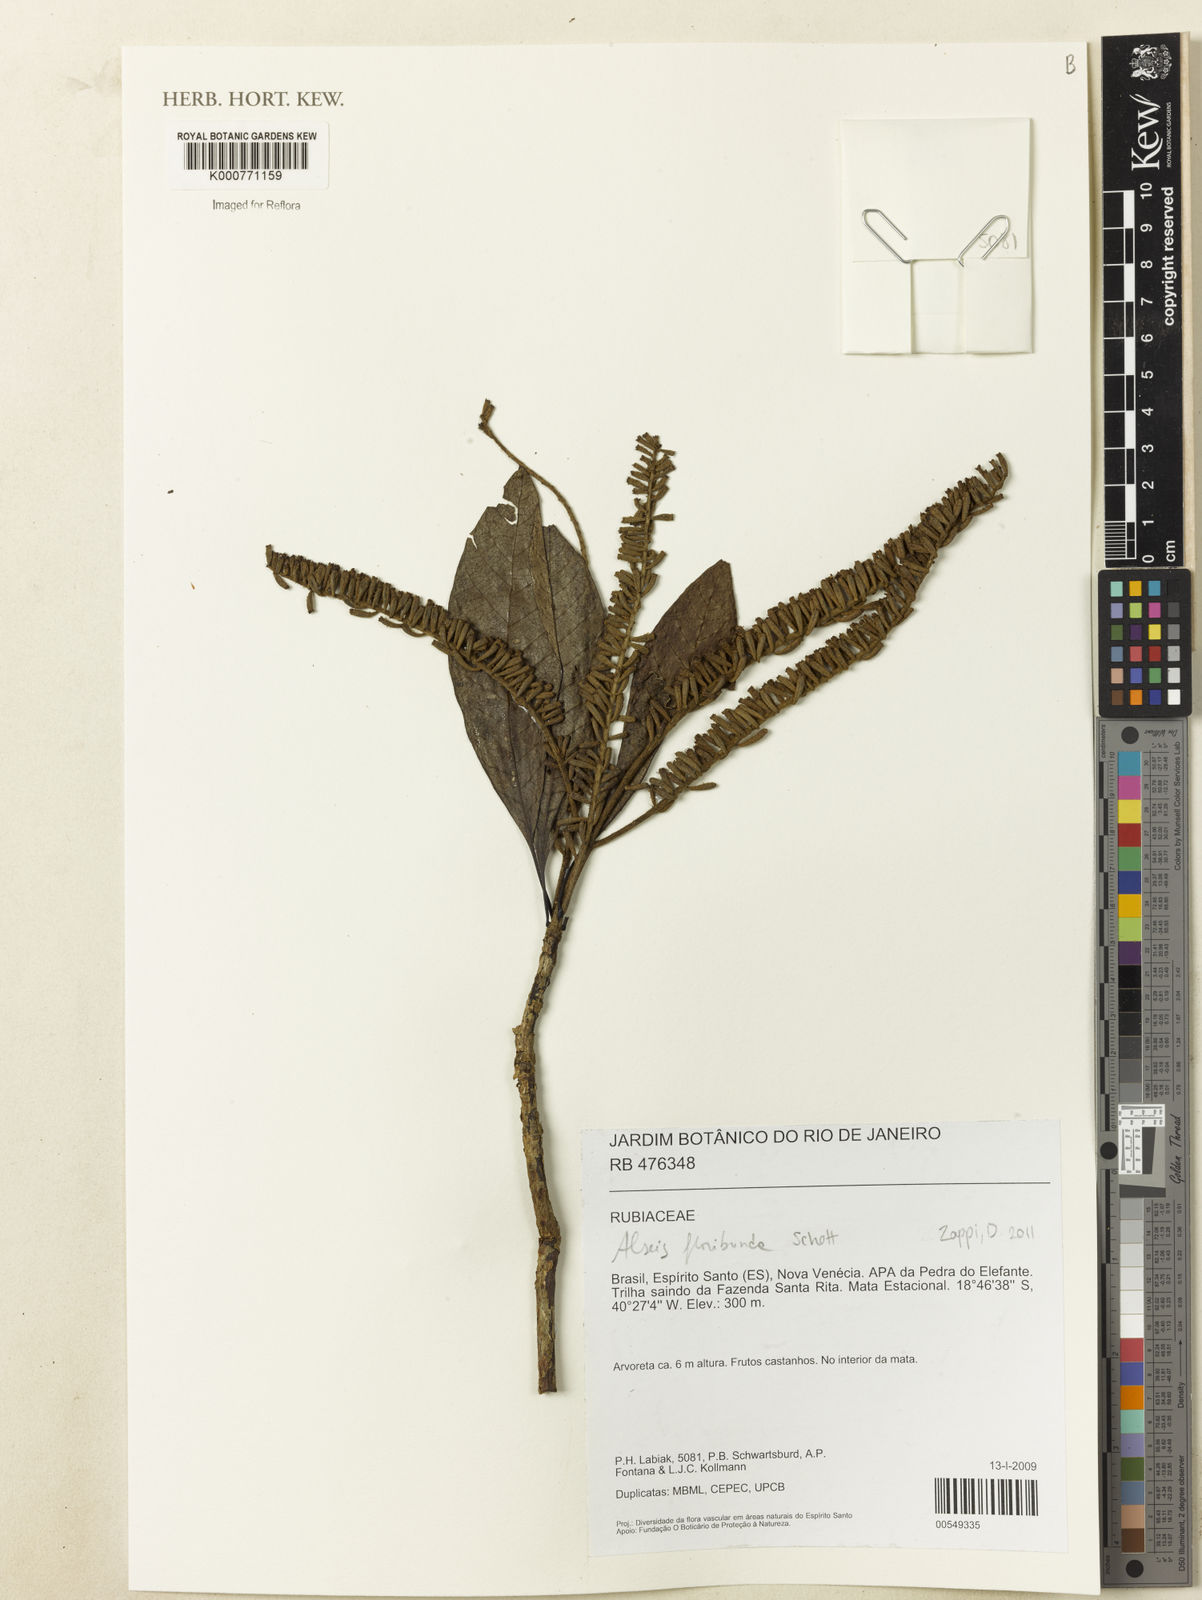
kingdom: Plantae
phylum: Tracheophyta
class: Magnoliopsida
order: Gentianales
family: Rubiaceae
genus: Alseis
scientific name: Alseis floribunda
